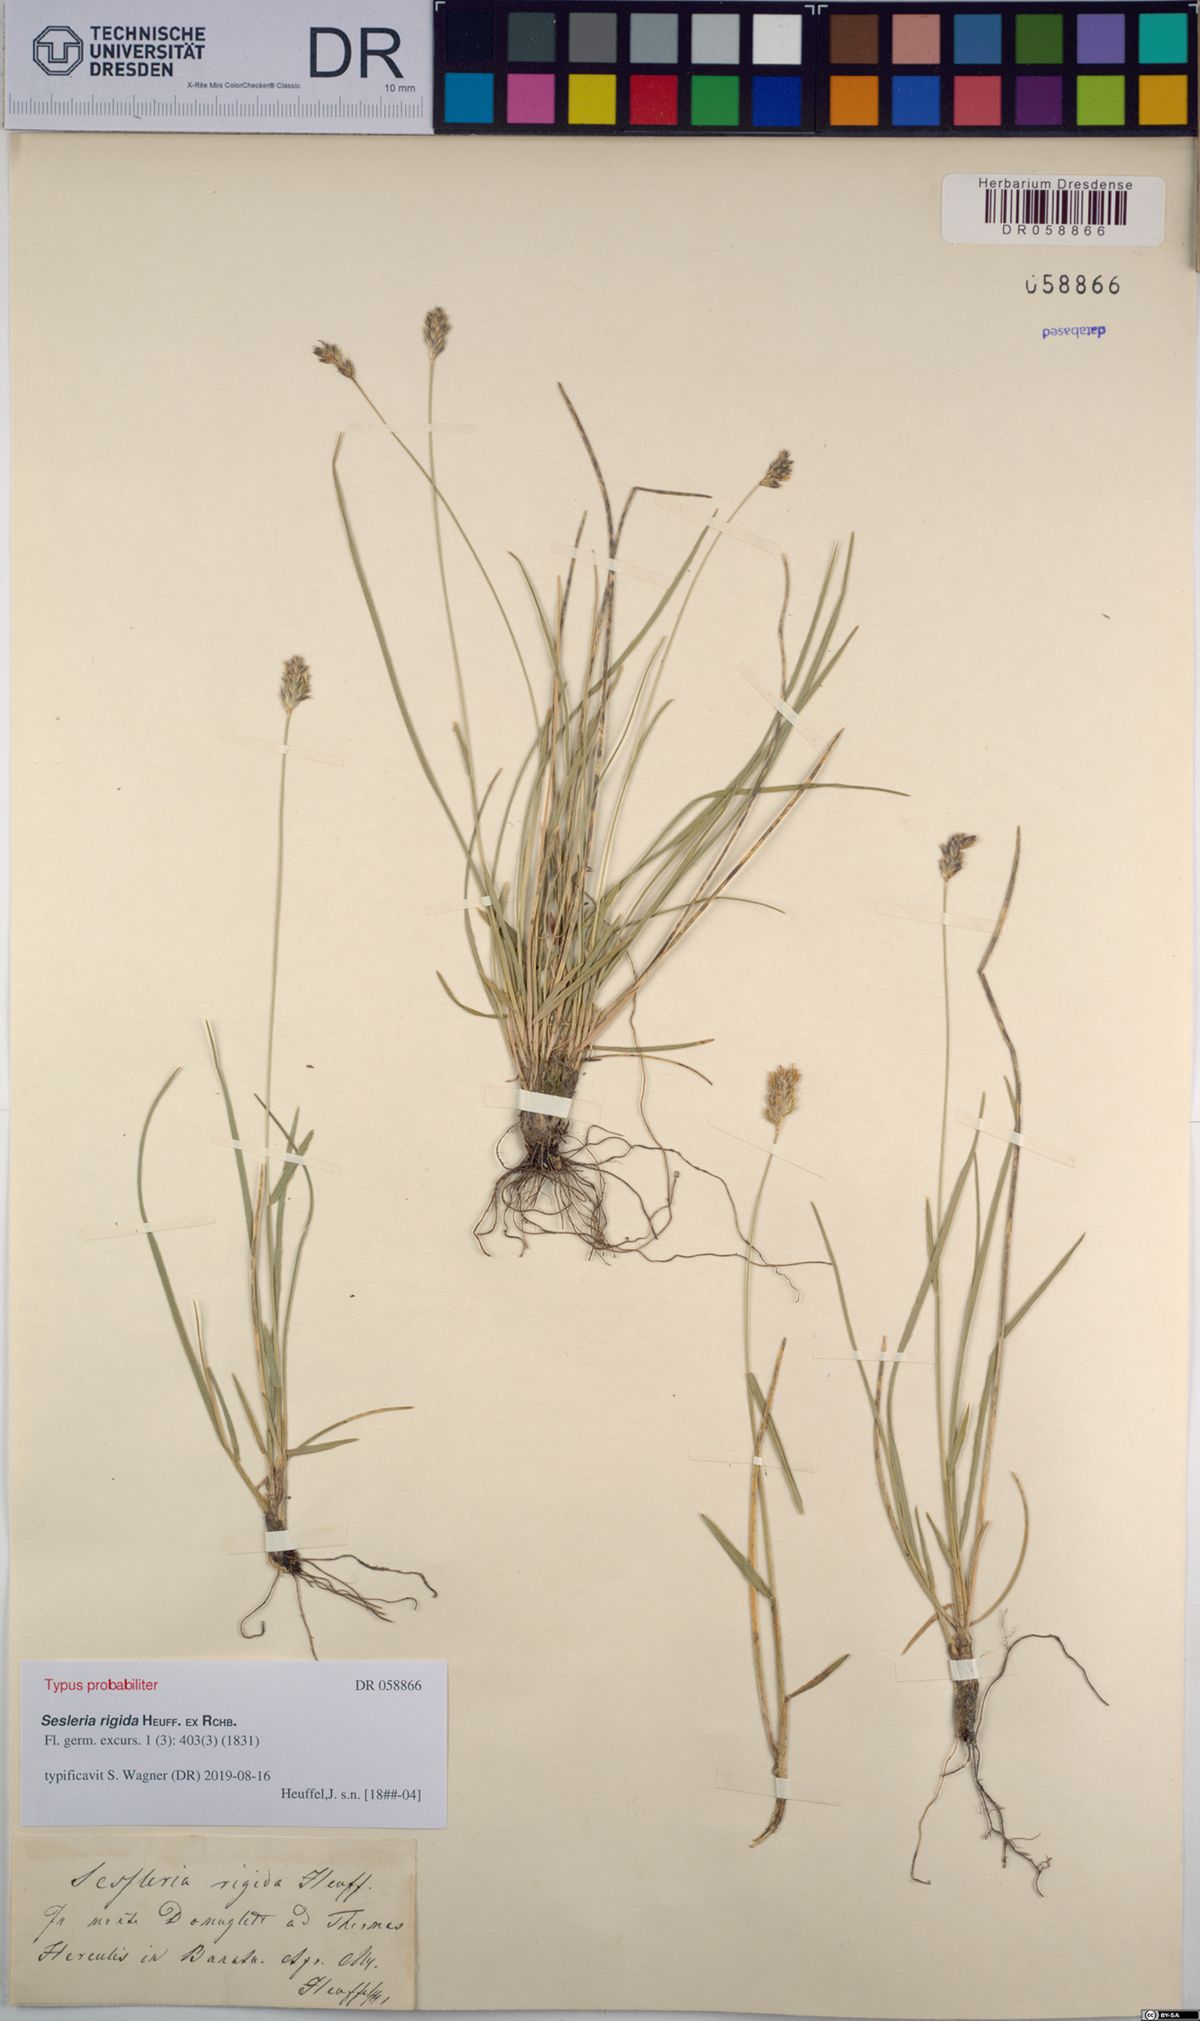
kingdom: Plantae
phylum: Tracheophyta
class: Liliopsida
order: Poales
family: Poaceae
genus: Sesleria
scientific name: Sesleria rigida
